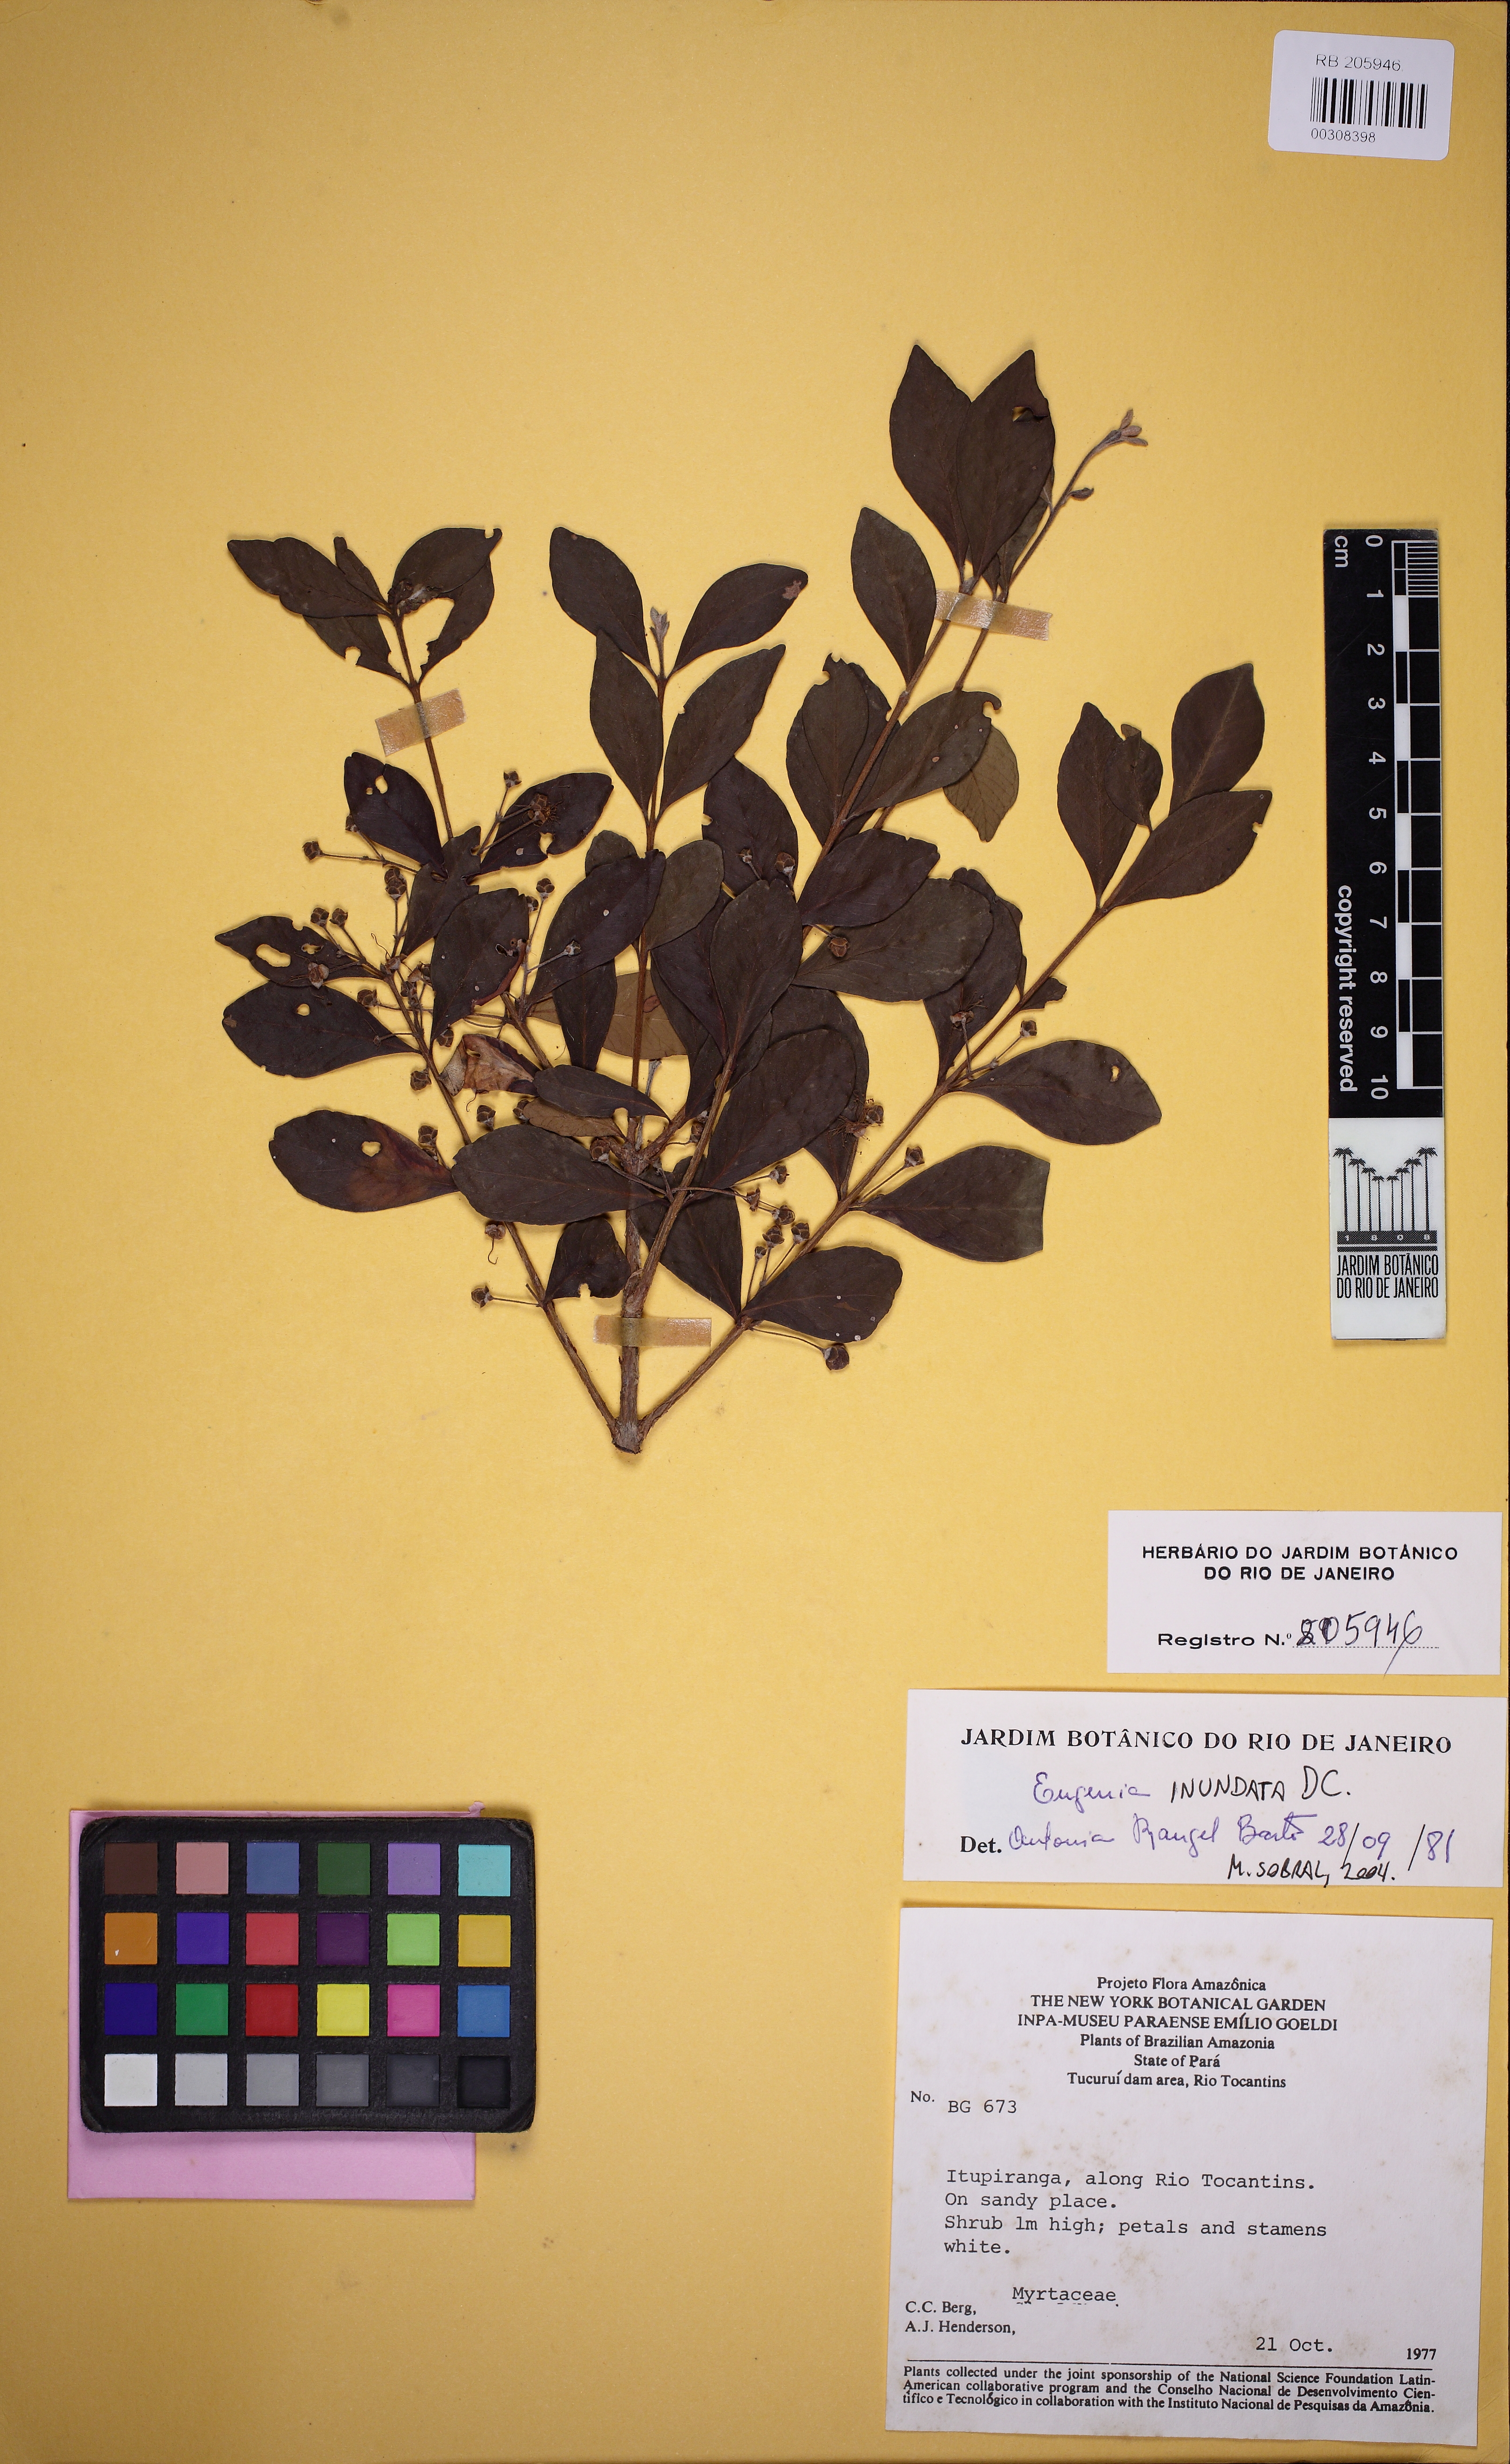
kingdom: Plantae
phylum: Tracheophyta
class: Magnoliopsida
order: Myrtales
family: Myrtaceae
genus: Eugenia
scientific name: Eugenia inundata
